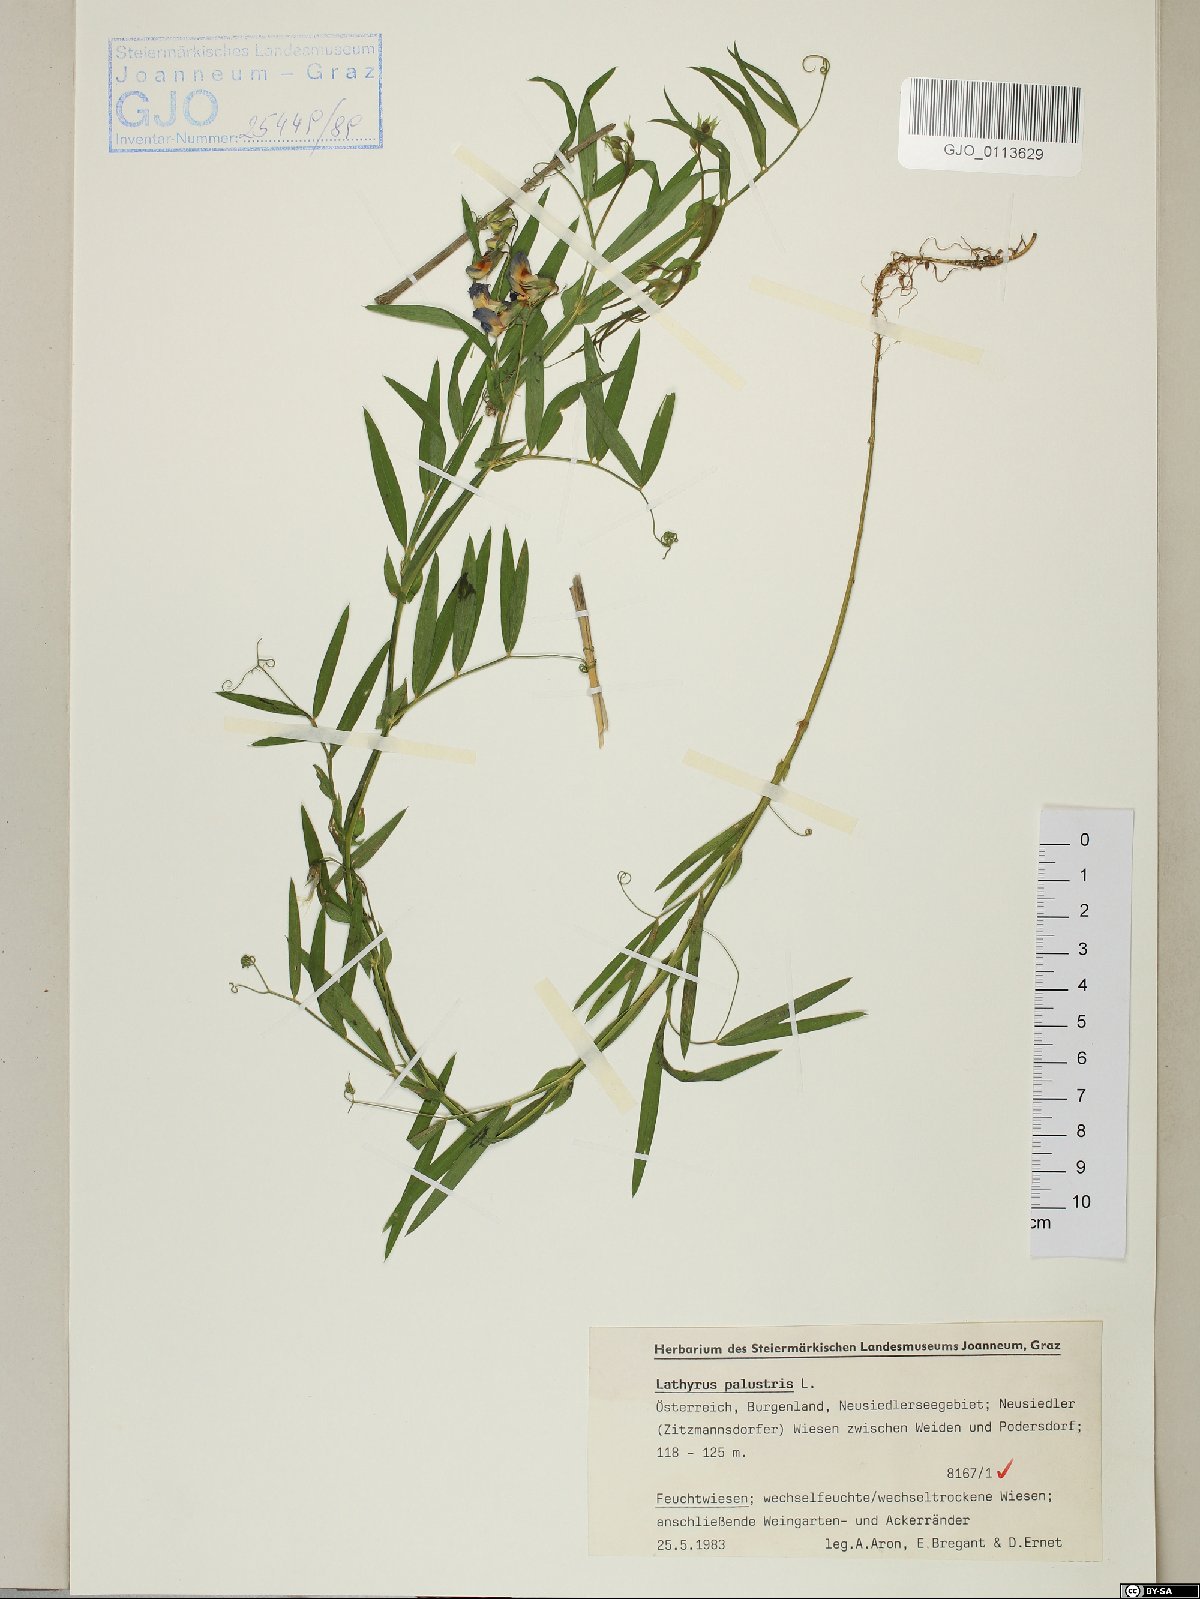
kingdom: Plantae
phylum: Tracheophyta
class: Magnoliopsida
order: Fabales
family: Fabaceae
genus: Lathyrus
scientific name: Lathyrus palustris
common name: Marsh pea
